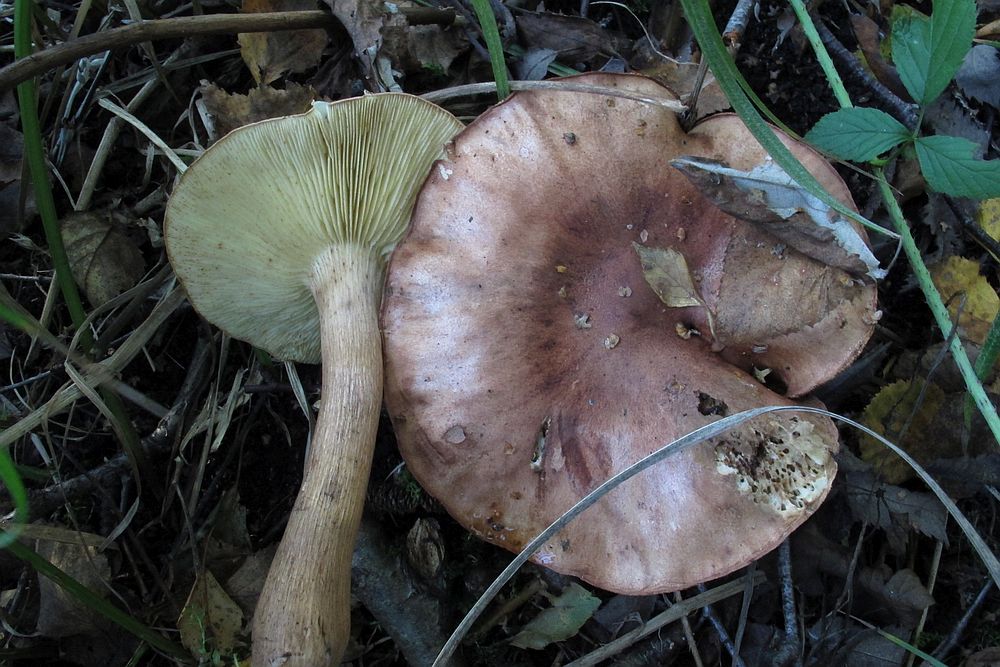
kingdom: Fungi
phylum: Basidiomycota
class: Agaricomycetes
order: Agaricales
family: Tricholomataceae
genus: Tricholoma
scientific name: Tricholoma fulvum
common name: birke-ridderhat
